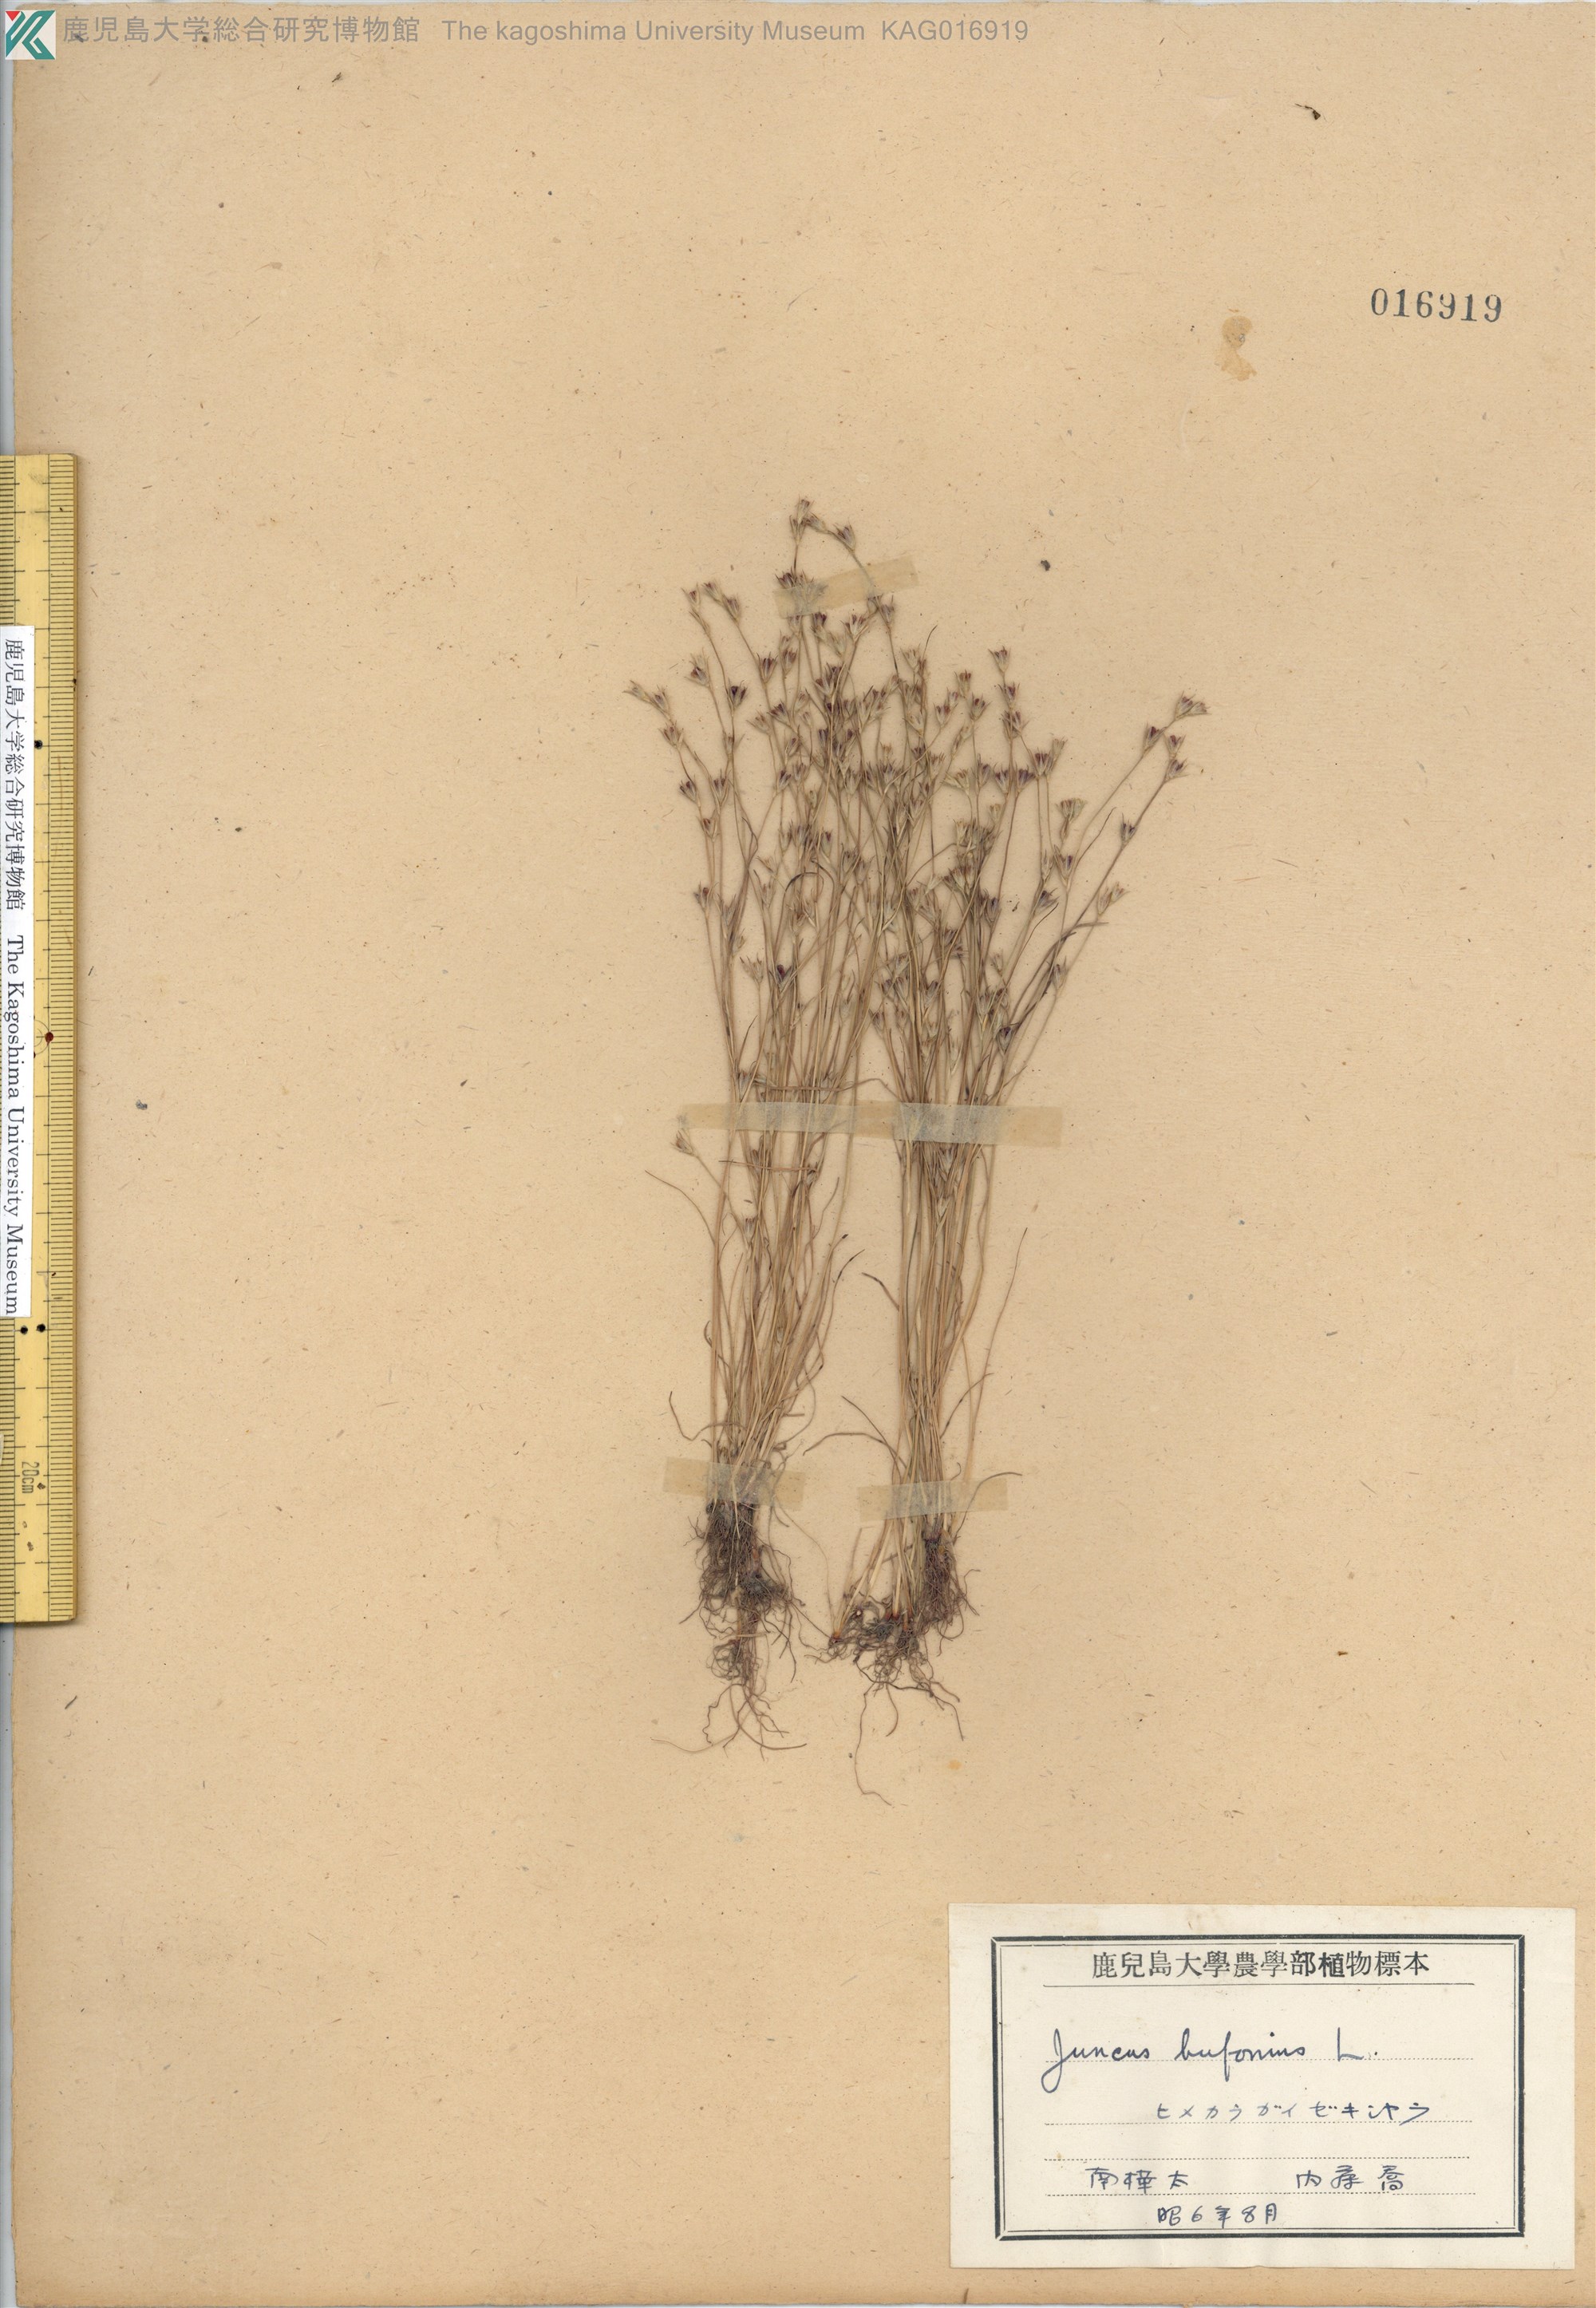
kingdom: Plantae
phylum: Tracheophyta
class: Liliopsida
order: Poales
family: Juncaceae
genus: Juncus
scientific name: Juncus bufonius
